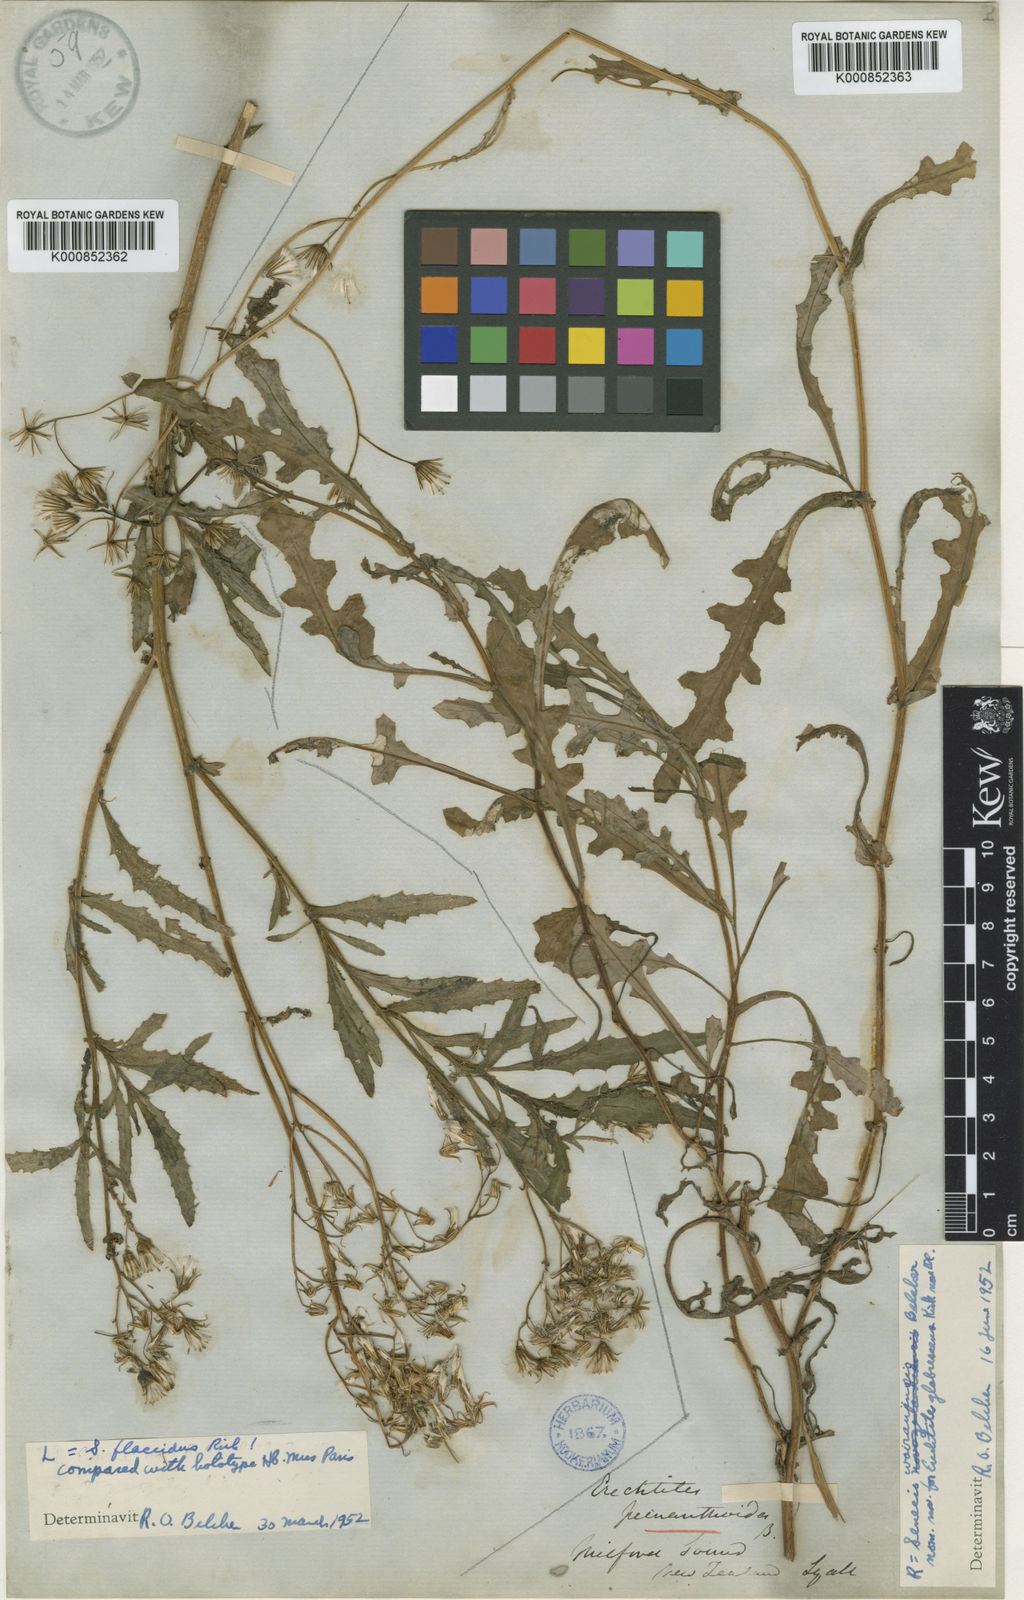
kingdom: Plantae
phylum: Tracheophyta
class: Magnoliopsida
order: Asterales
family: Asteraceae
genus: Senecio
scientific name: Senecio biserratus
